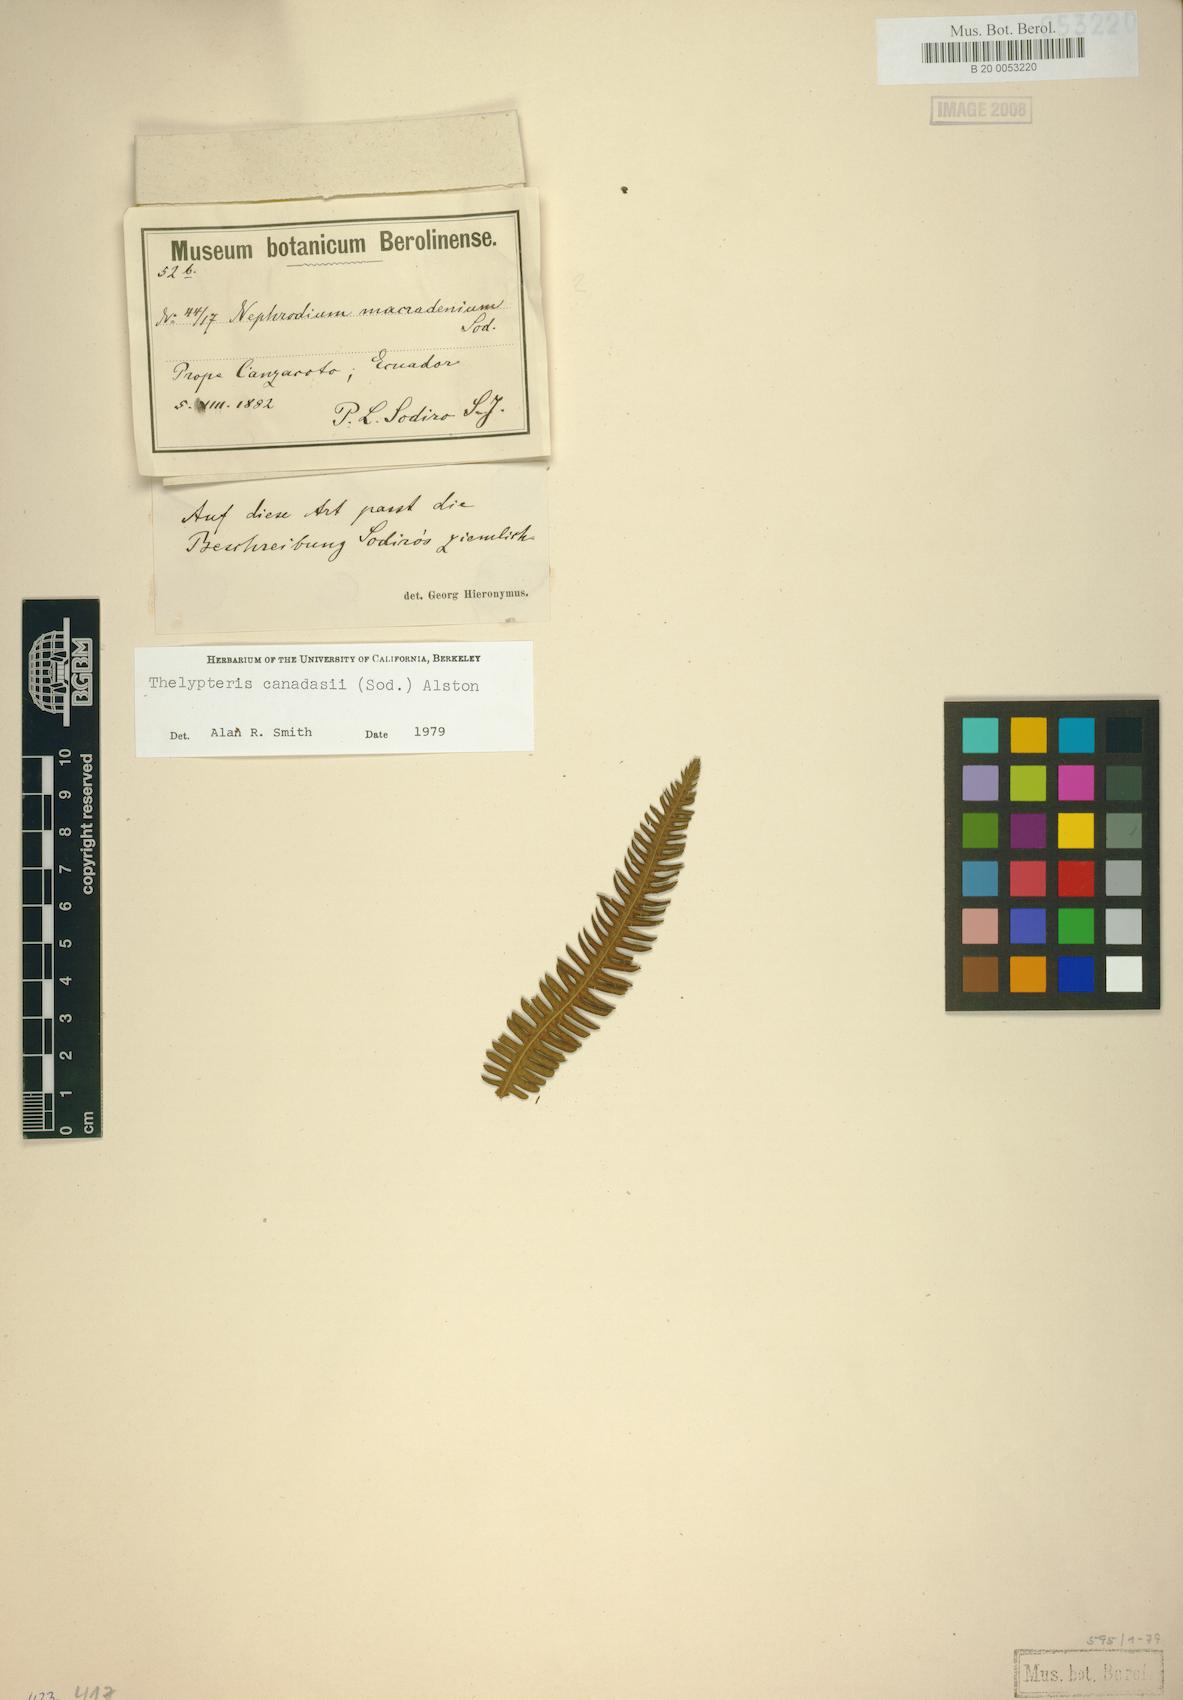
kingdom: Plantae
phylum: Tracheophyta
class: Polypodiopsida
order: Polypodiales
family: Thelypteridaceae
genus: Amauropelta
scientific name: Amauropelta canadasii
